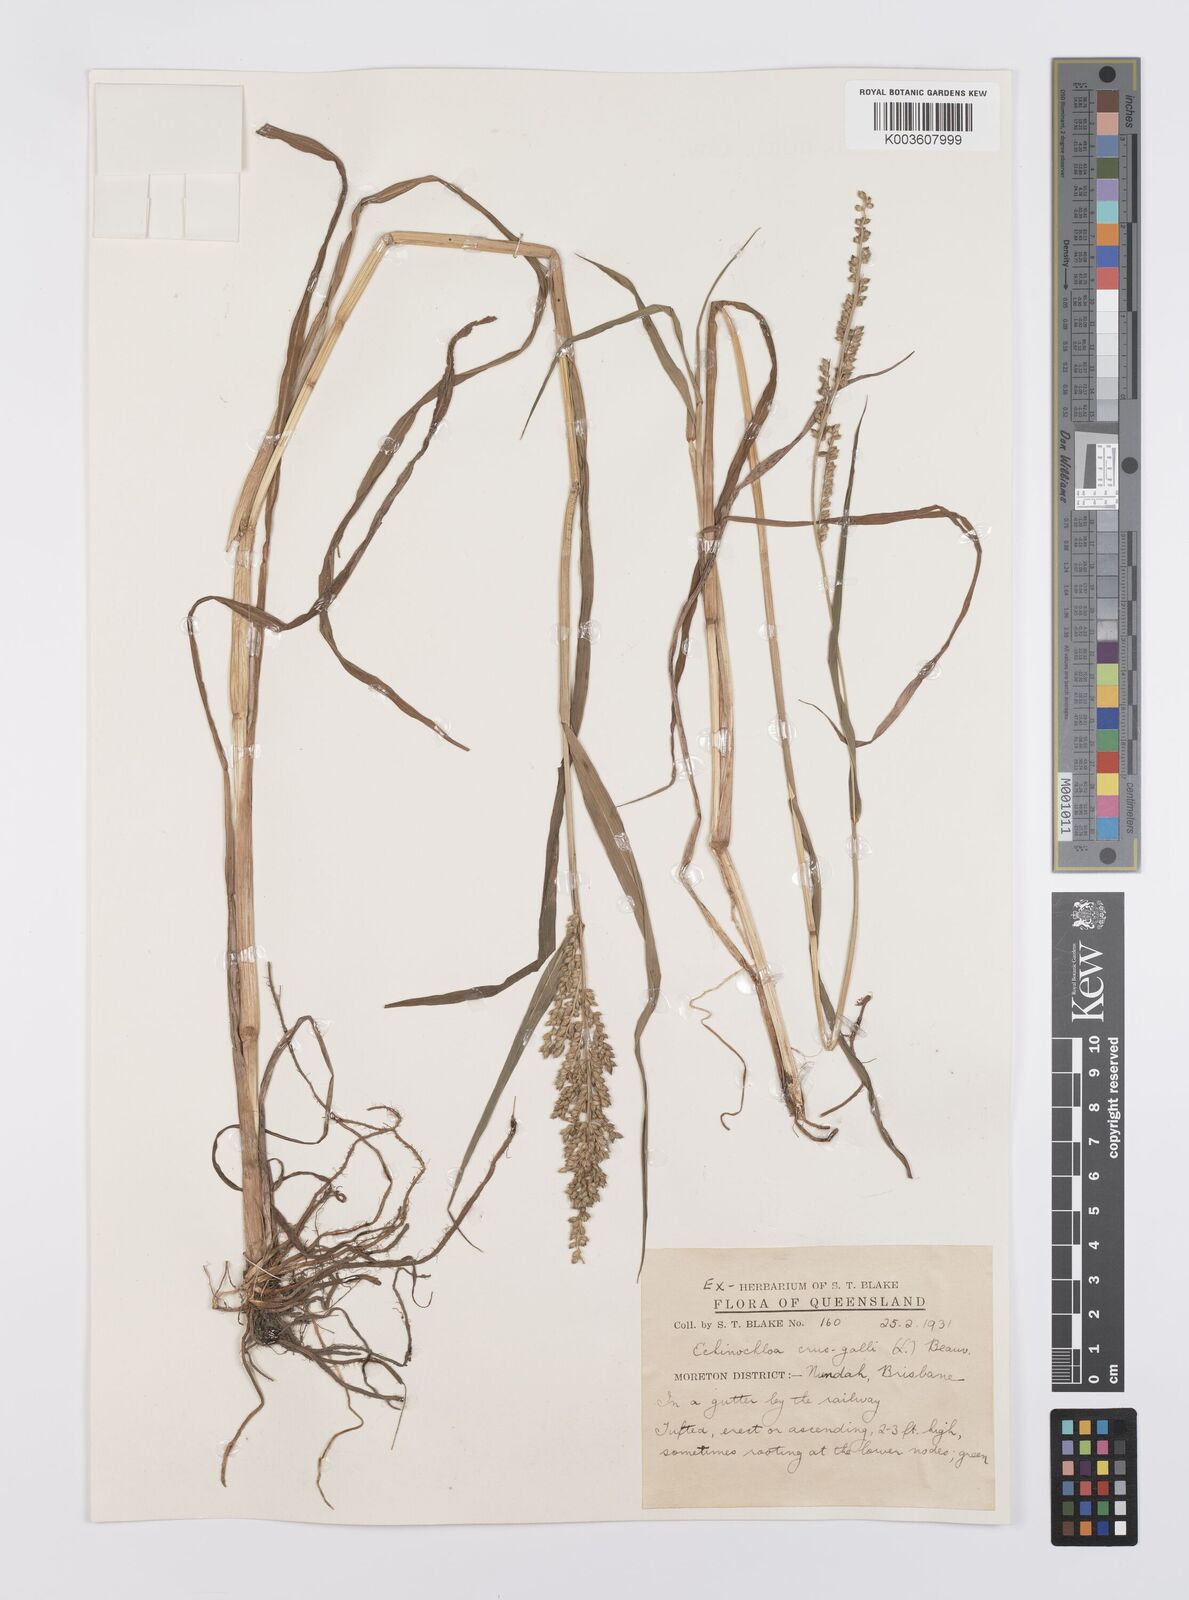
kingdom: Plantae
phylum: Tracheophyta
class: Liliopsida
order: Poales
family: Poaceae
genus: Echinochloa
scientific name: Echinochloa crus-galli
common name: Cockspur
